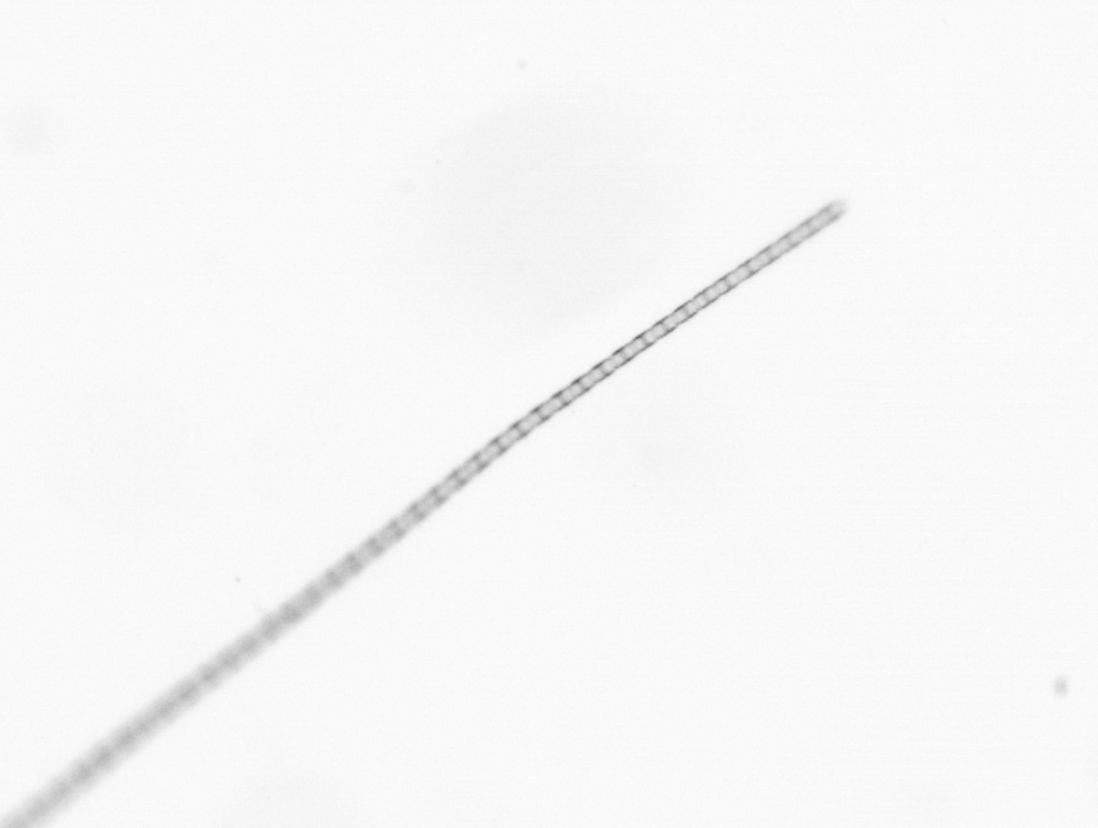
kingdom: Chromista
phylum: Ochrophyta
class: Bacillariophyceae
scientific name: Bacillariophyceae
